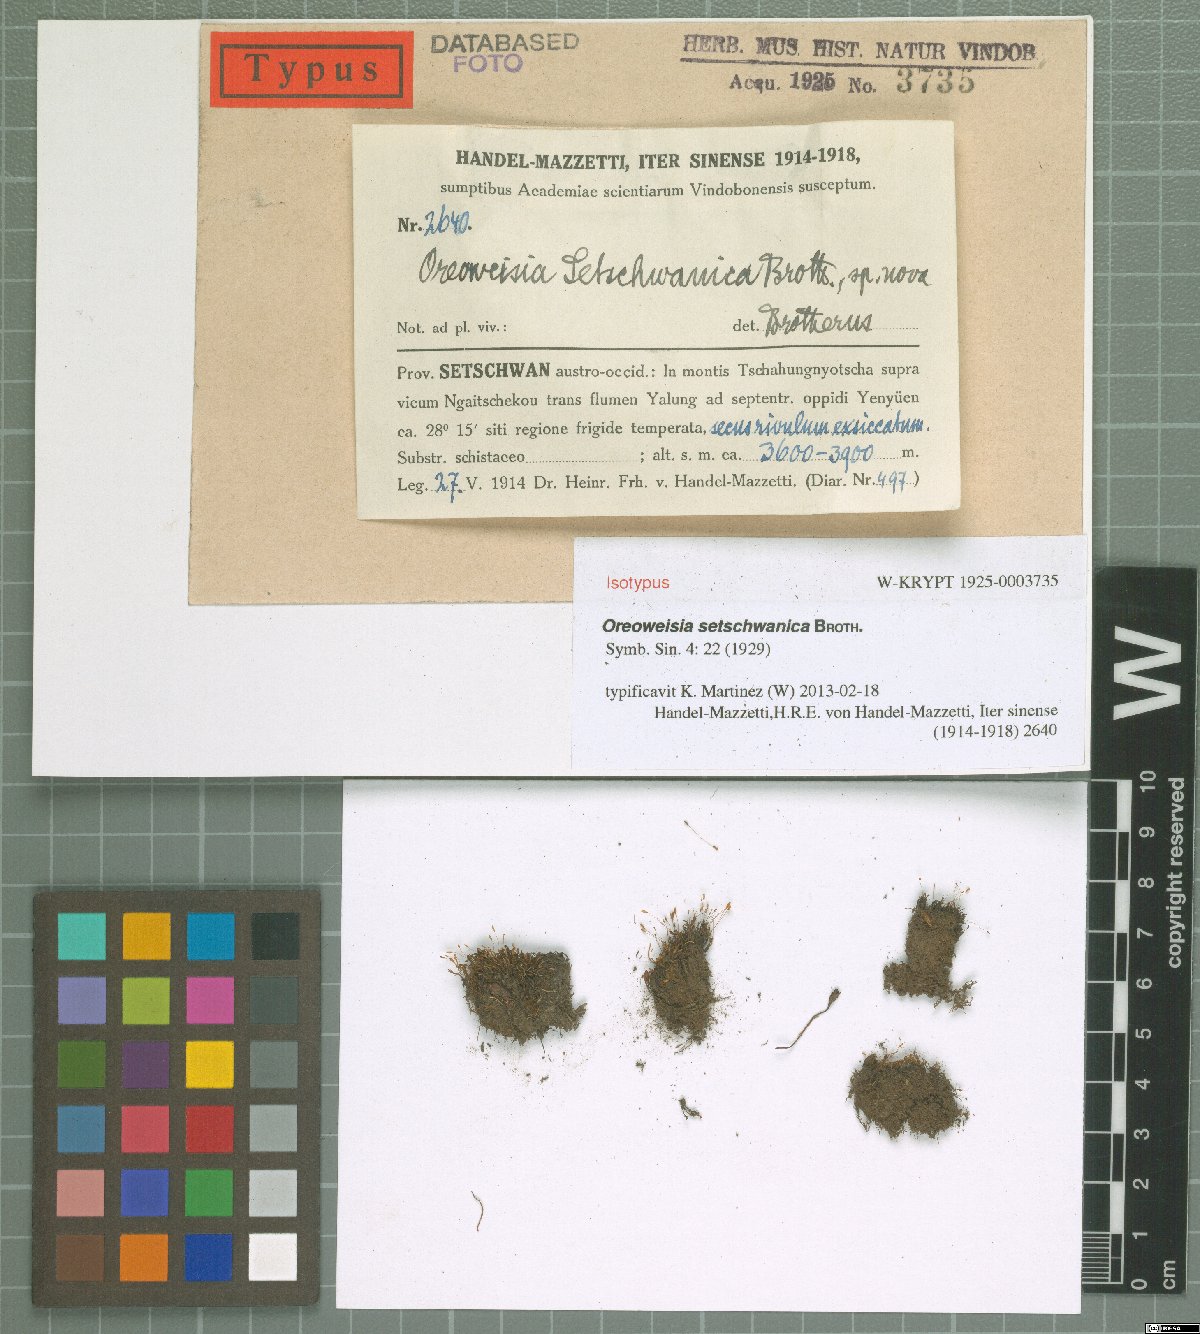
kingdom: Plantae
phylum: Bryophyta
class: Bryopsida
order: Dicranales
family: Rhabdoweisiaceae
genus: Cynodontium
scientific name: Cynodontium setschwanicum
